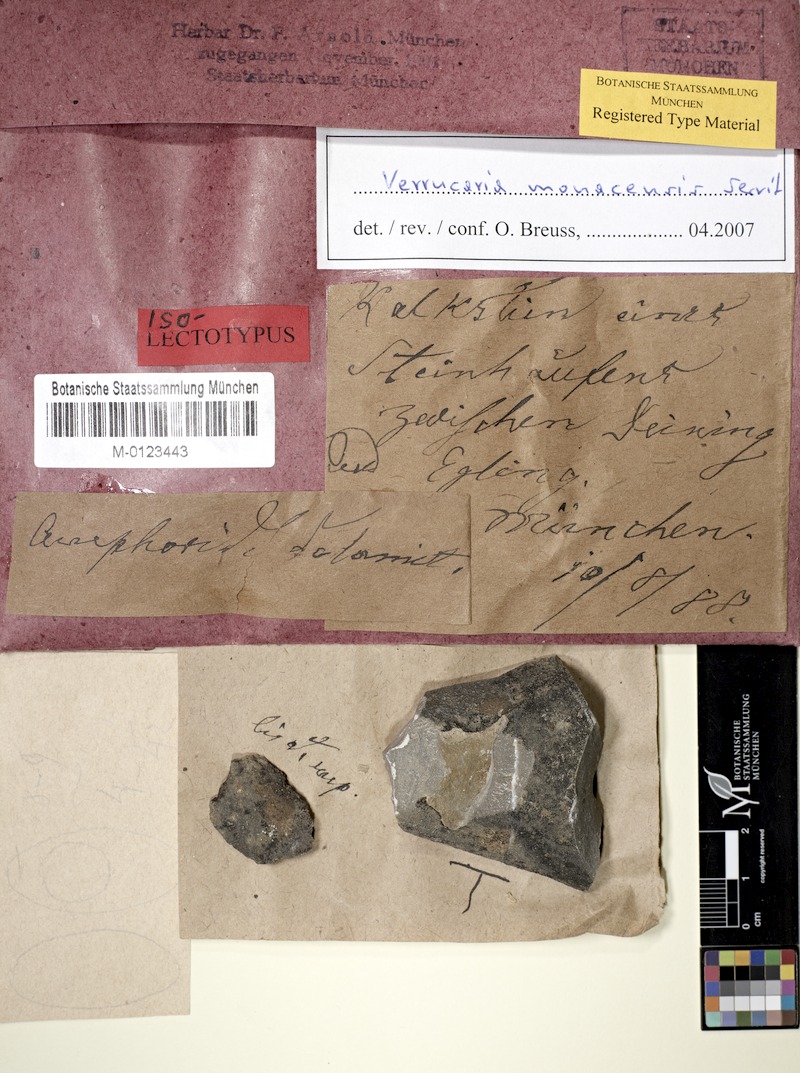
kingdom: Fungi
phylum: Ascomycota
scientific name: Ascomycota
